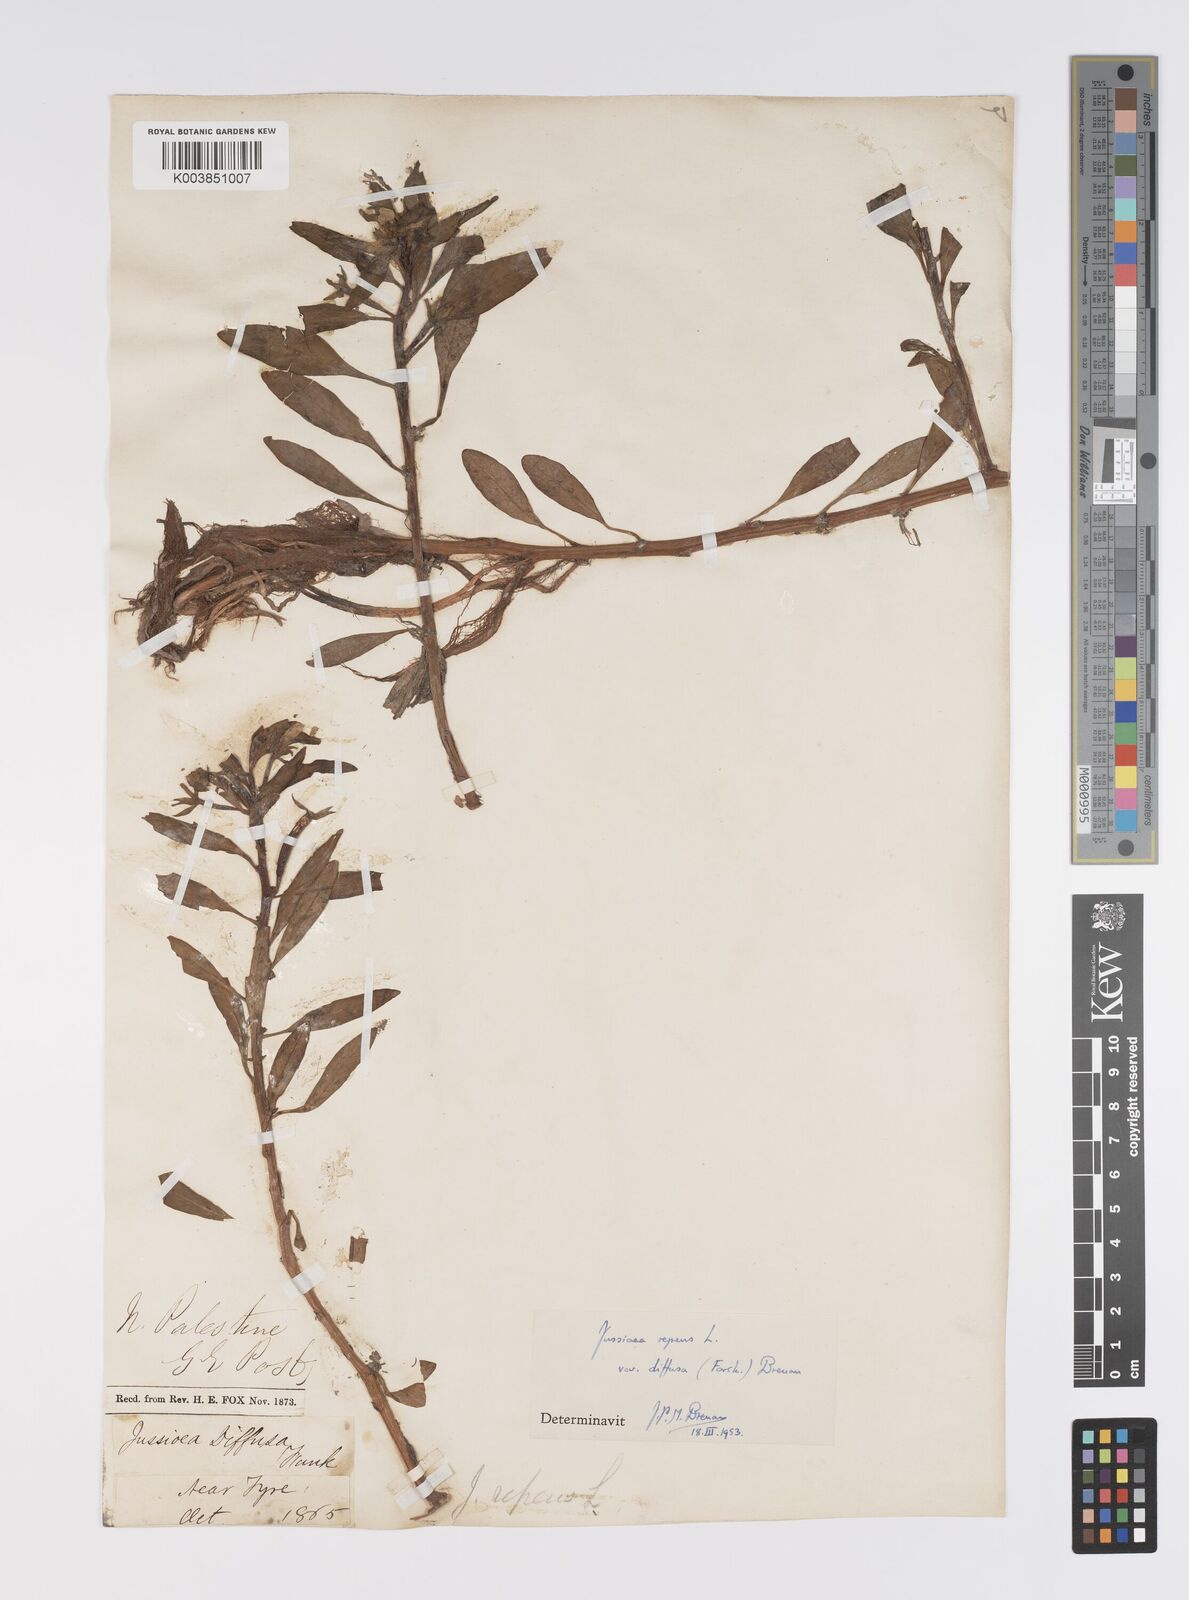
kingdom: Plantae
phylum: Tracheophyta
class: Magnoliopsida
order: Myrtales
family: Onagraceae
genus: Ludwigia
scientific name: Ludwigia adscendens
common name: Creeping water primrose
